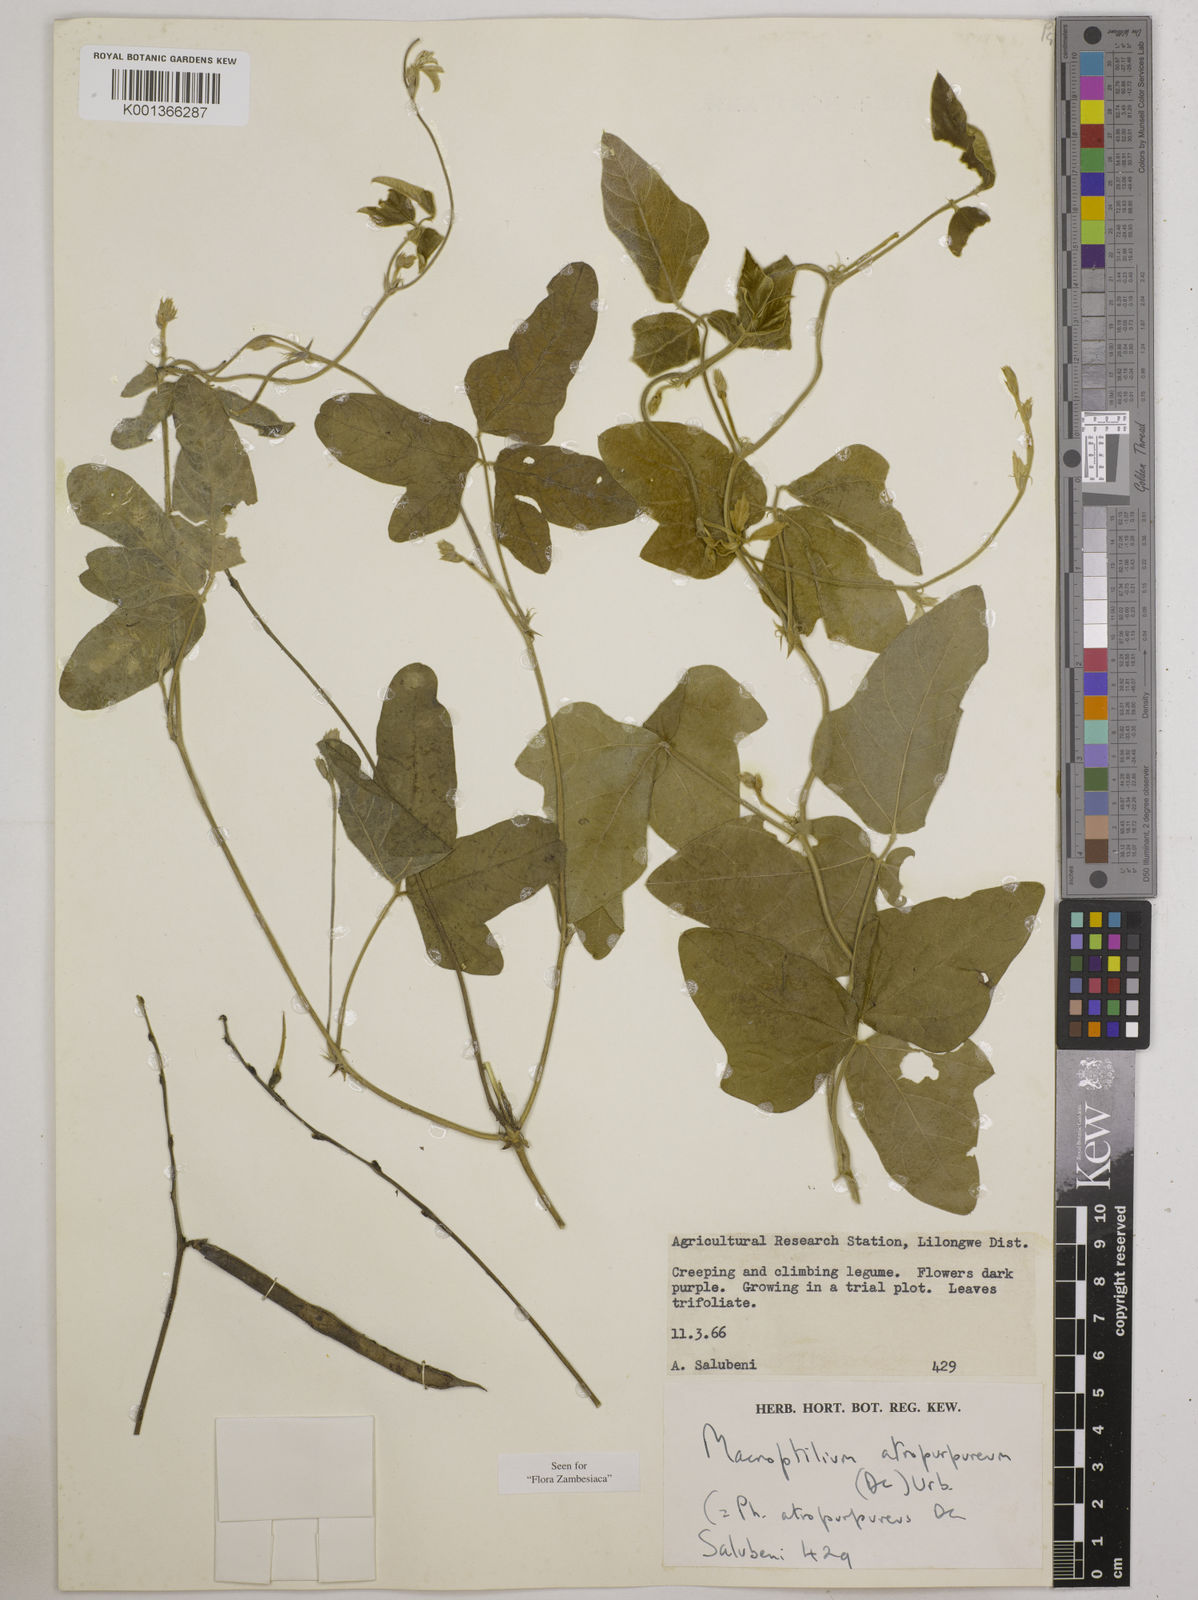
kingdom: Plantae
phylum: Tracheophyta
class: Magnoliopsida
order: Fabales
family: Fabaceae
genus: Macroptilium
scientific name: Macroptilium atropurpureum
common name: Purple bushbean
